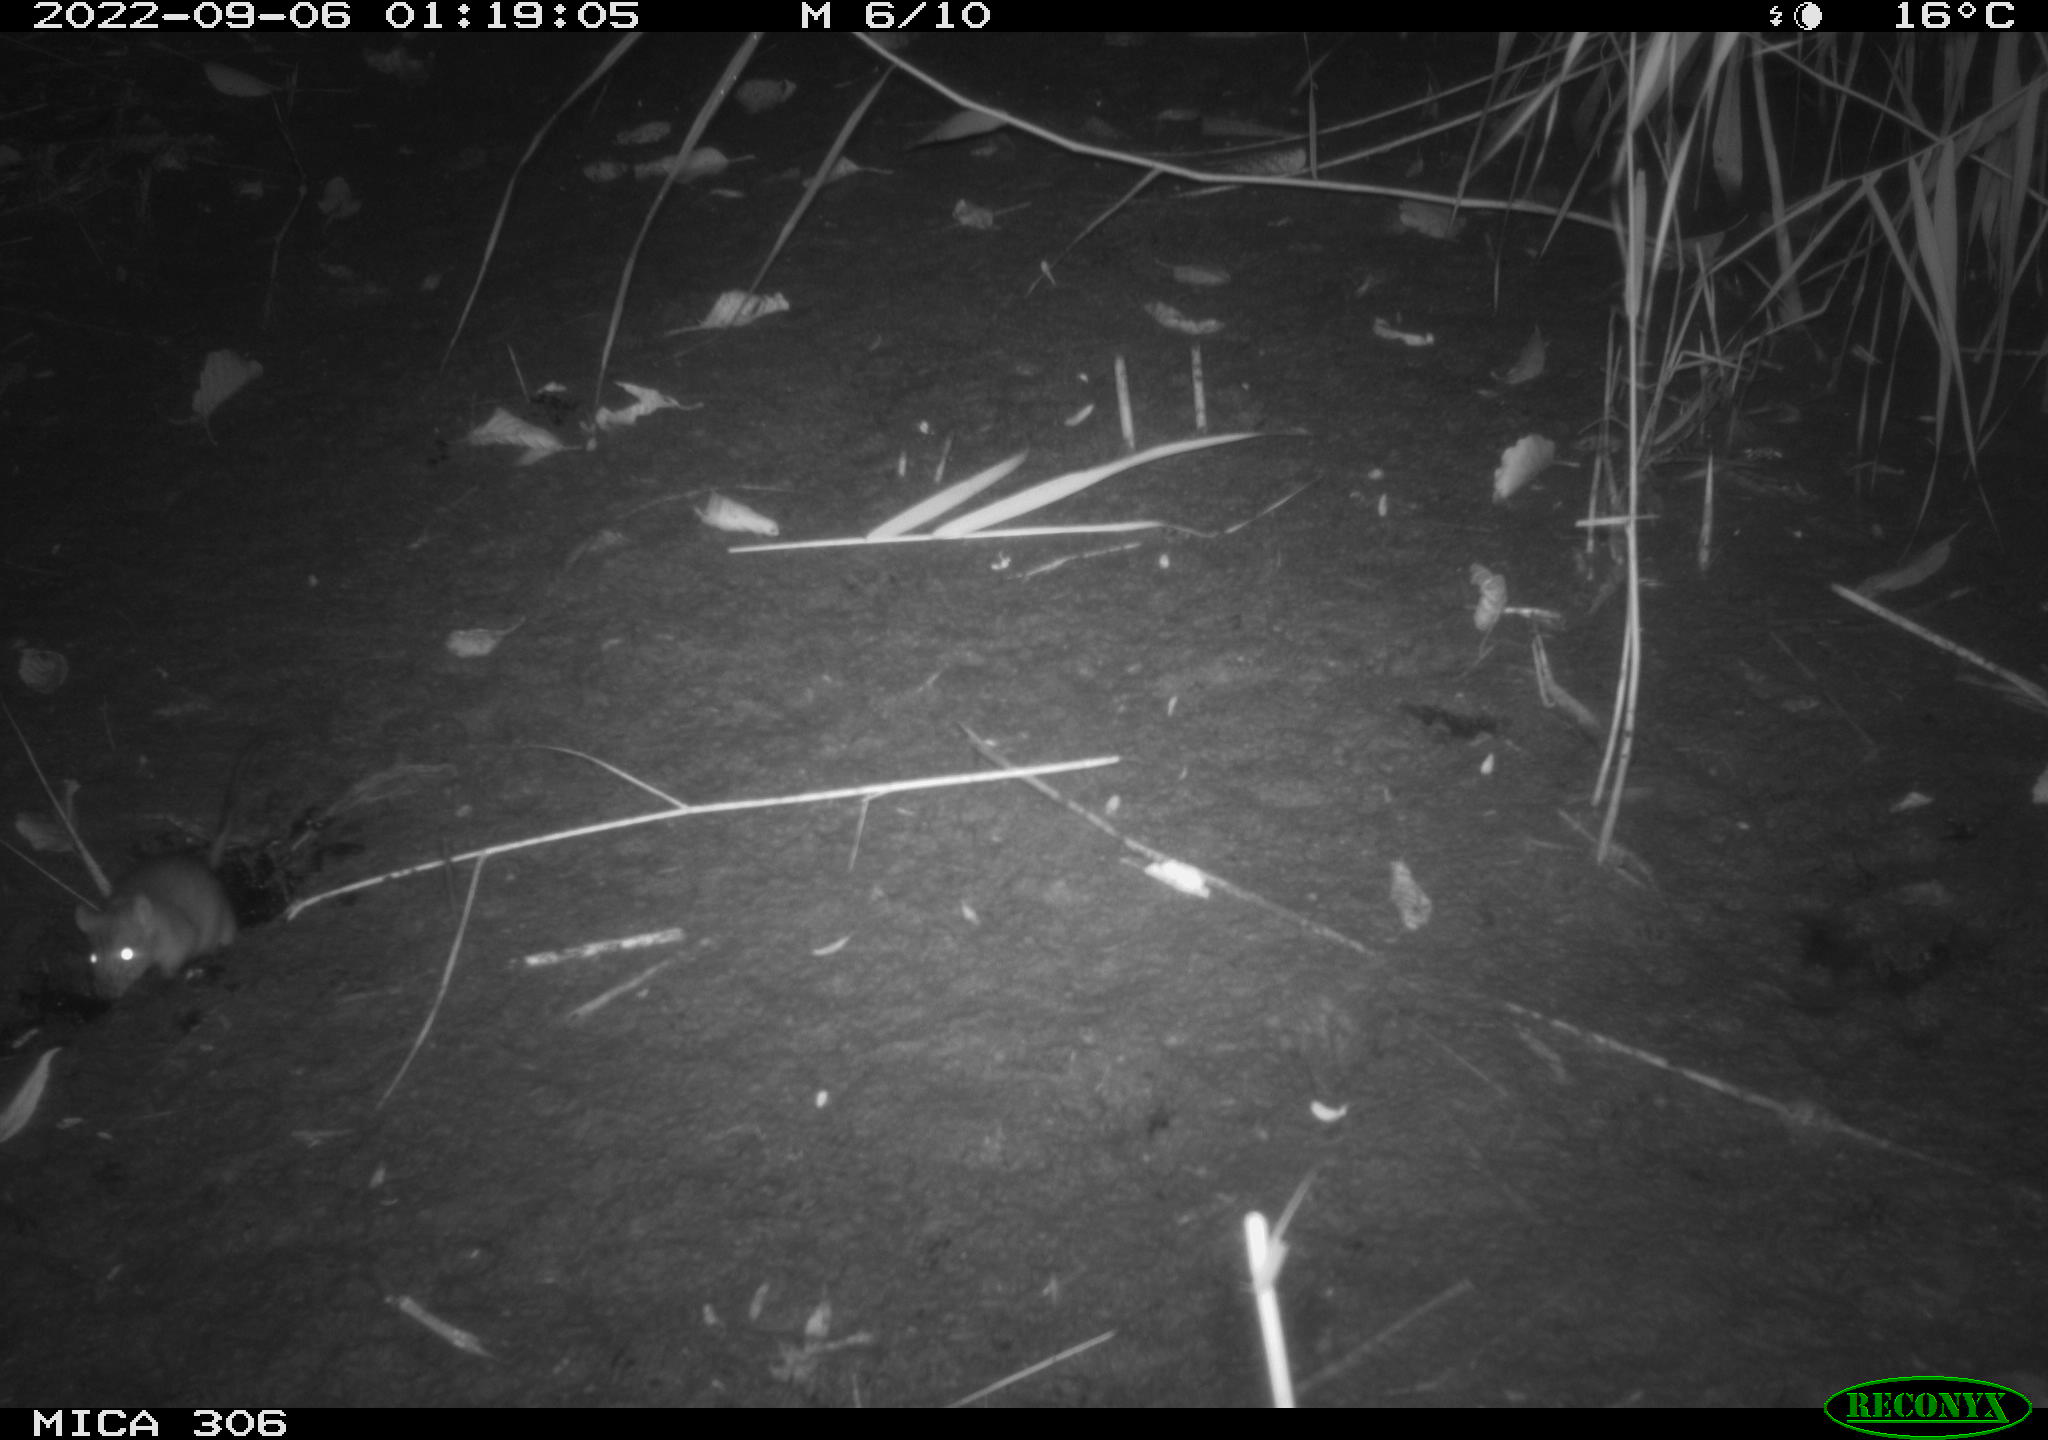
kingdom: Animalia
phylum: Chordata
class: Mammalia
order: Rodentia
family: Muridae
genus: Rattus
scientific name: Rattus norvegicus
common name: Brown rat
